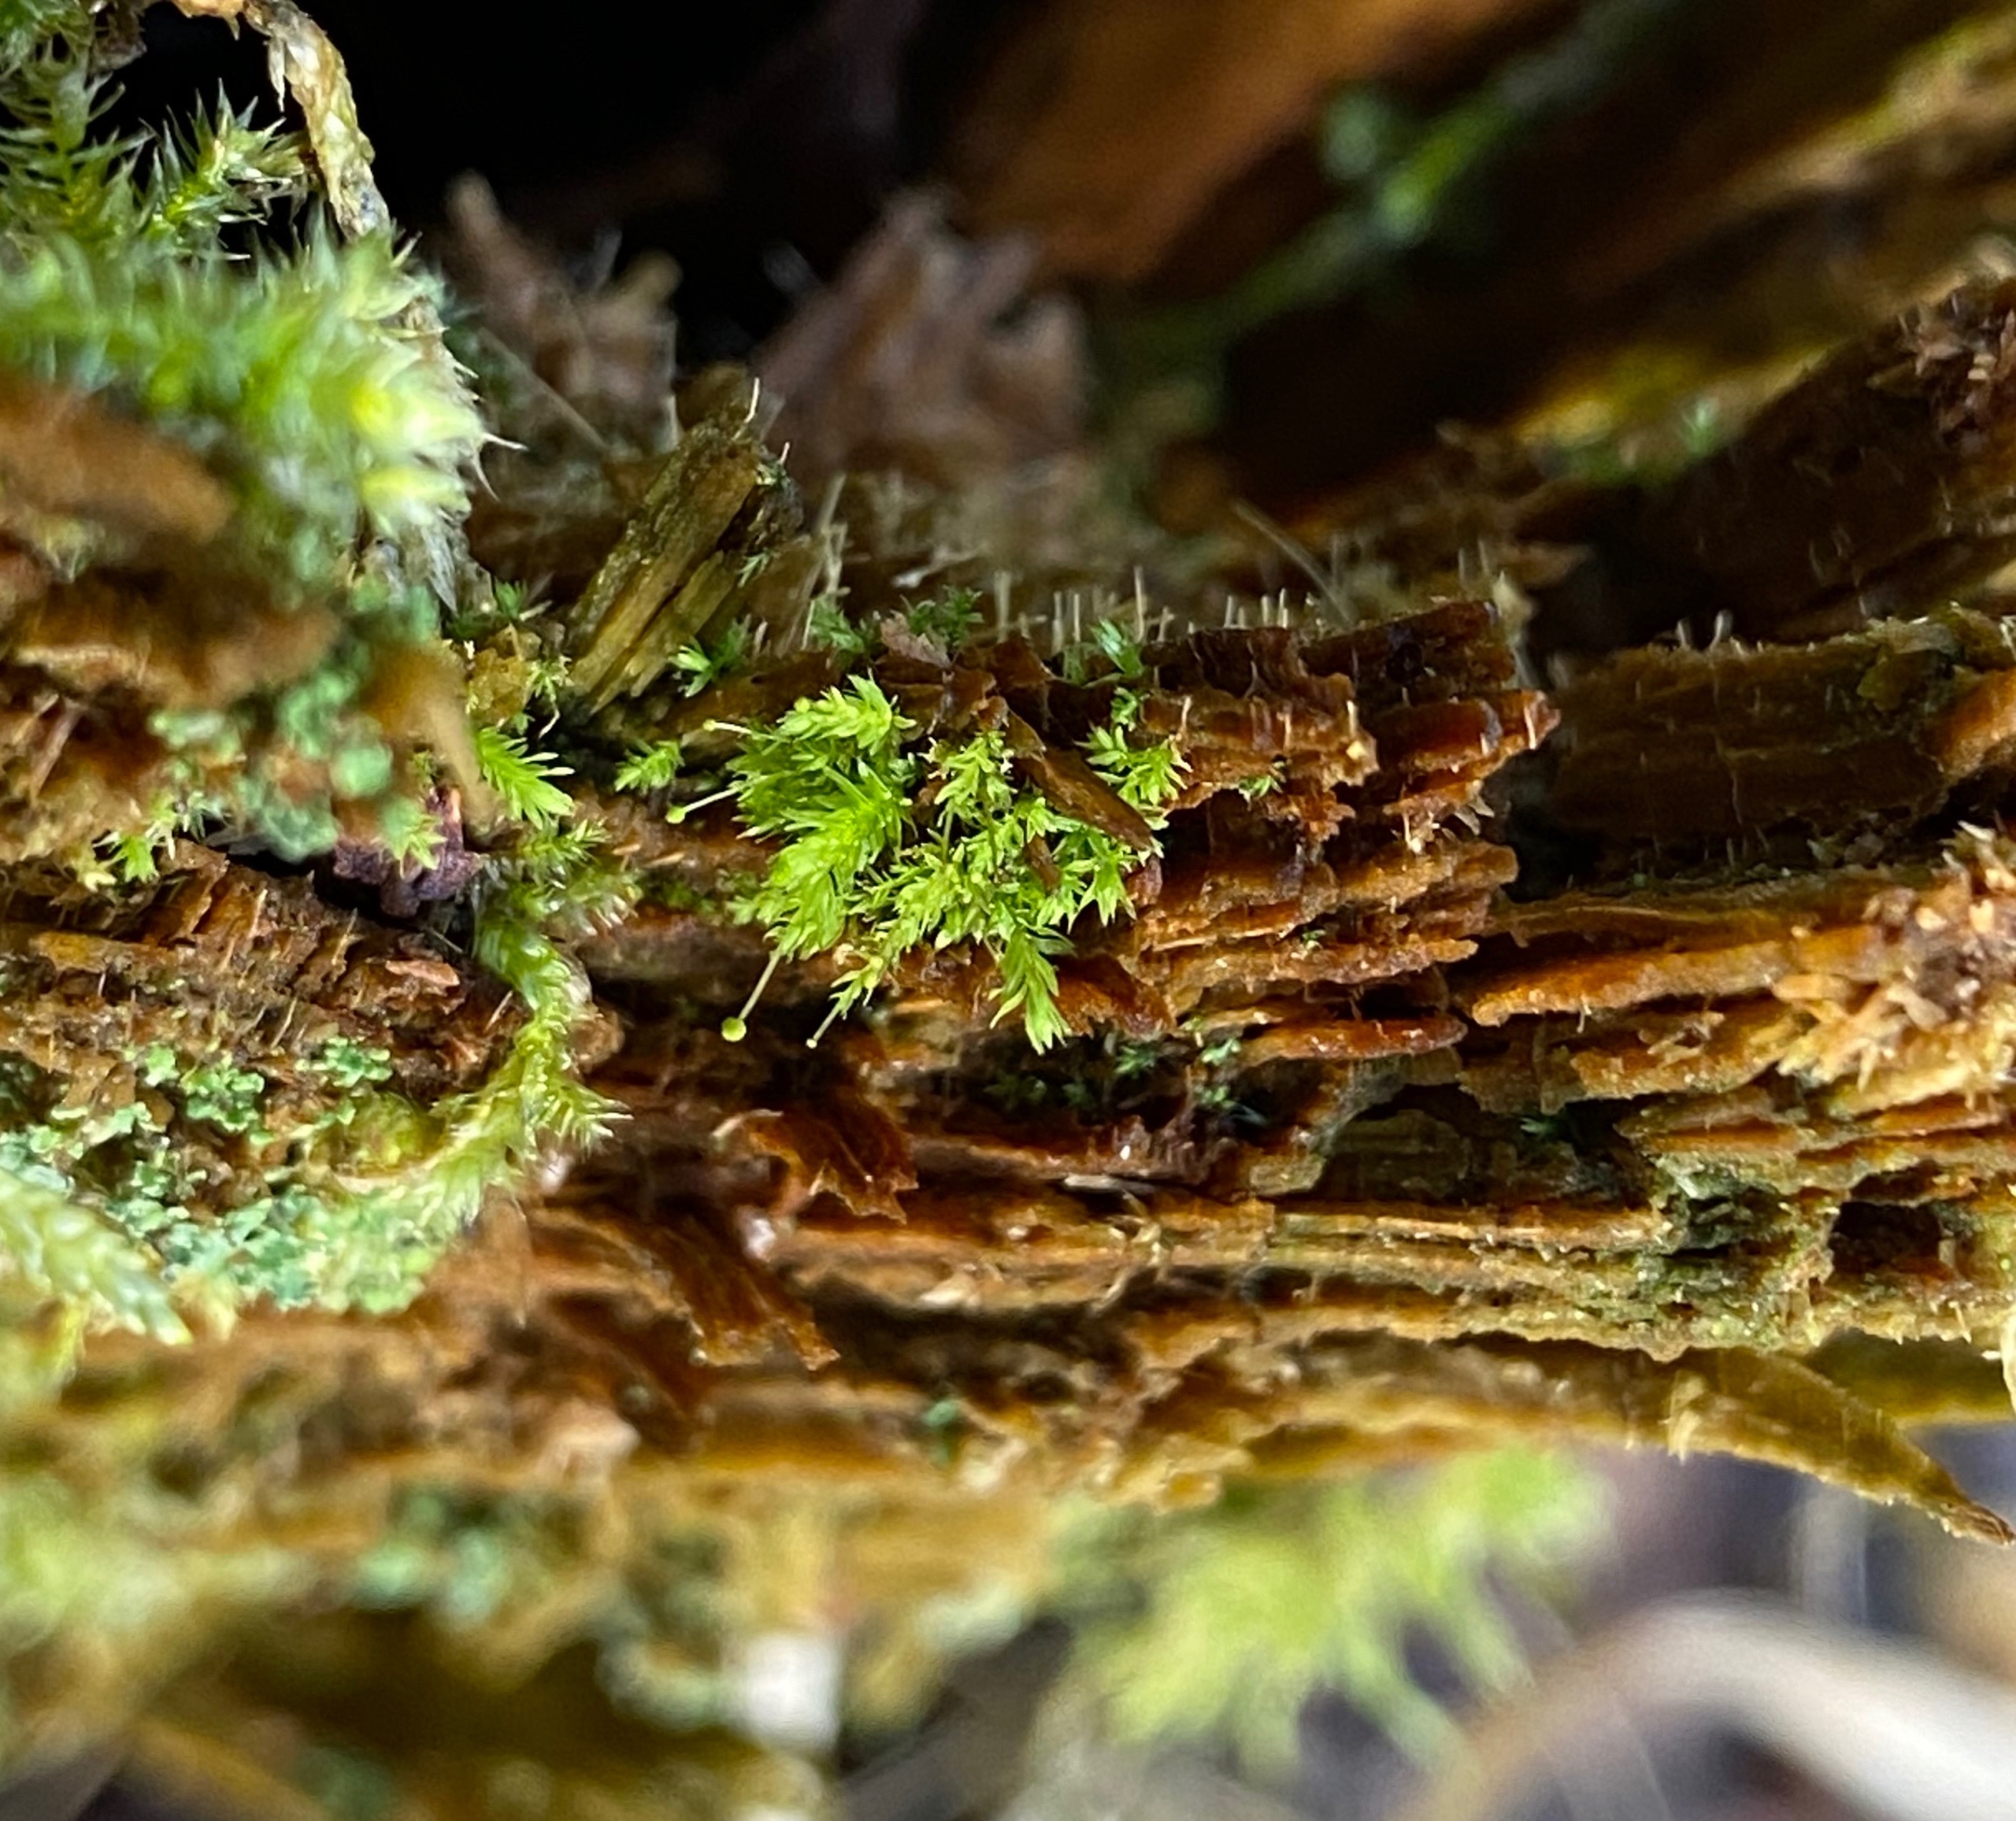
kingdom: Plantae
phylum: Bryophyta
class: Bryopsida
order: Aulacomniales
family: Aulacomniaceae
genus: Aulacomnium
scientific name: Aulacomnium androgynum
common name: Kugle-filtmos
